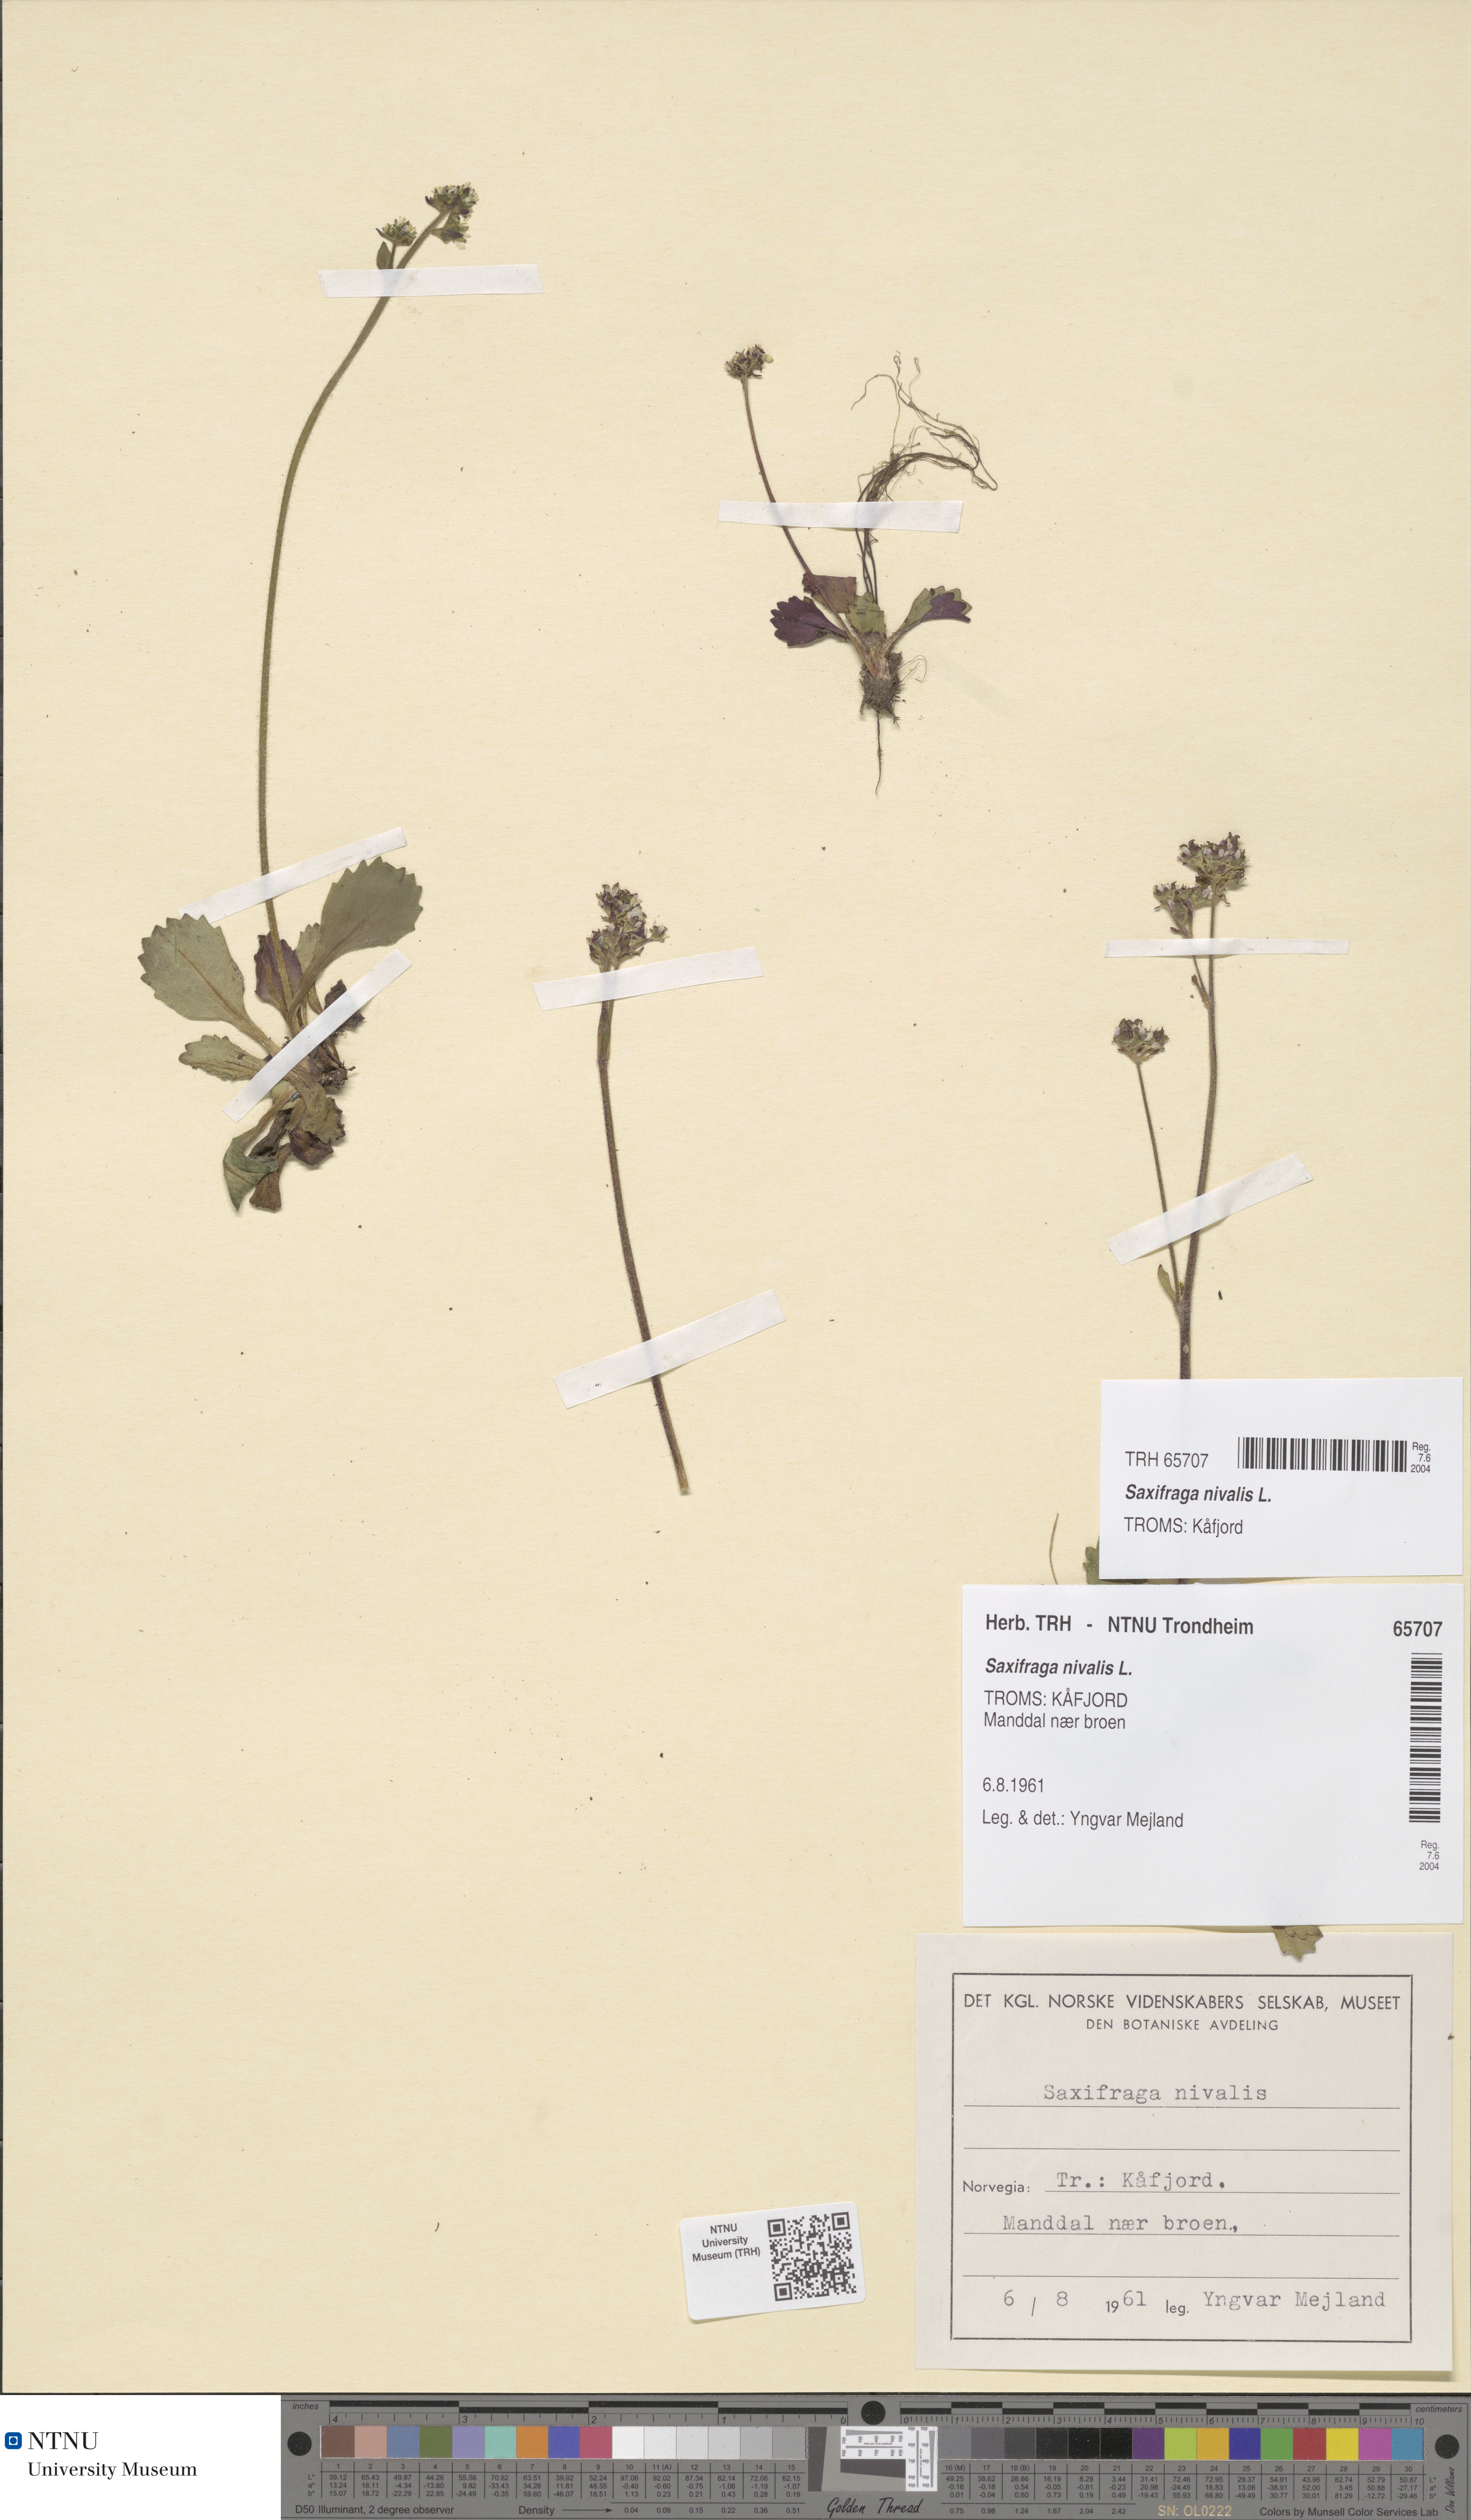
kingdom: Plantae
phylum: Tracheophyta
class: Magnoliopsida
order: Saxifragales
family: Saxifragaceae
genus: Micranthes
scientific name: Micranthes nivalis
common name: Alpine saxifrage
